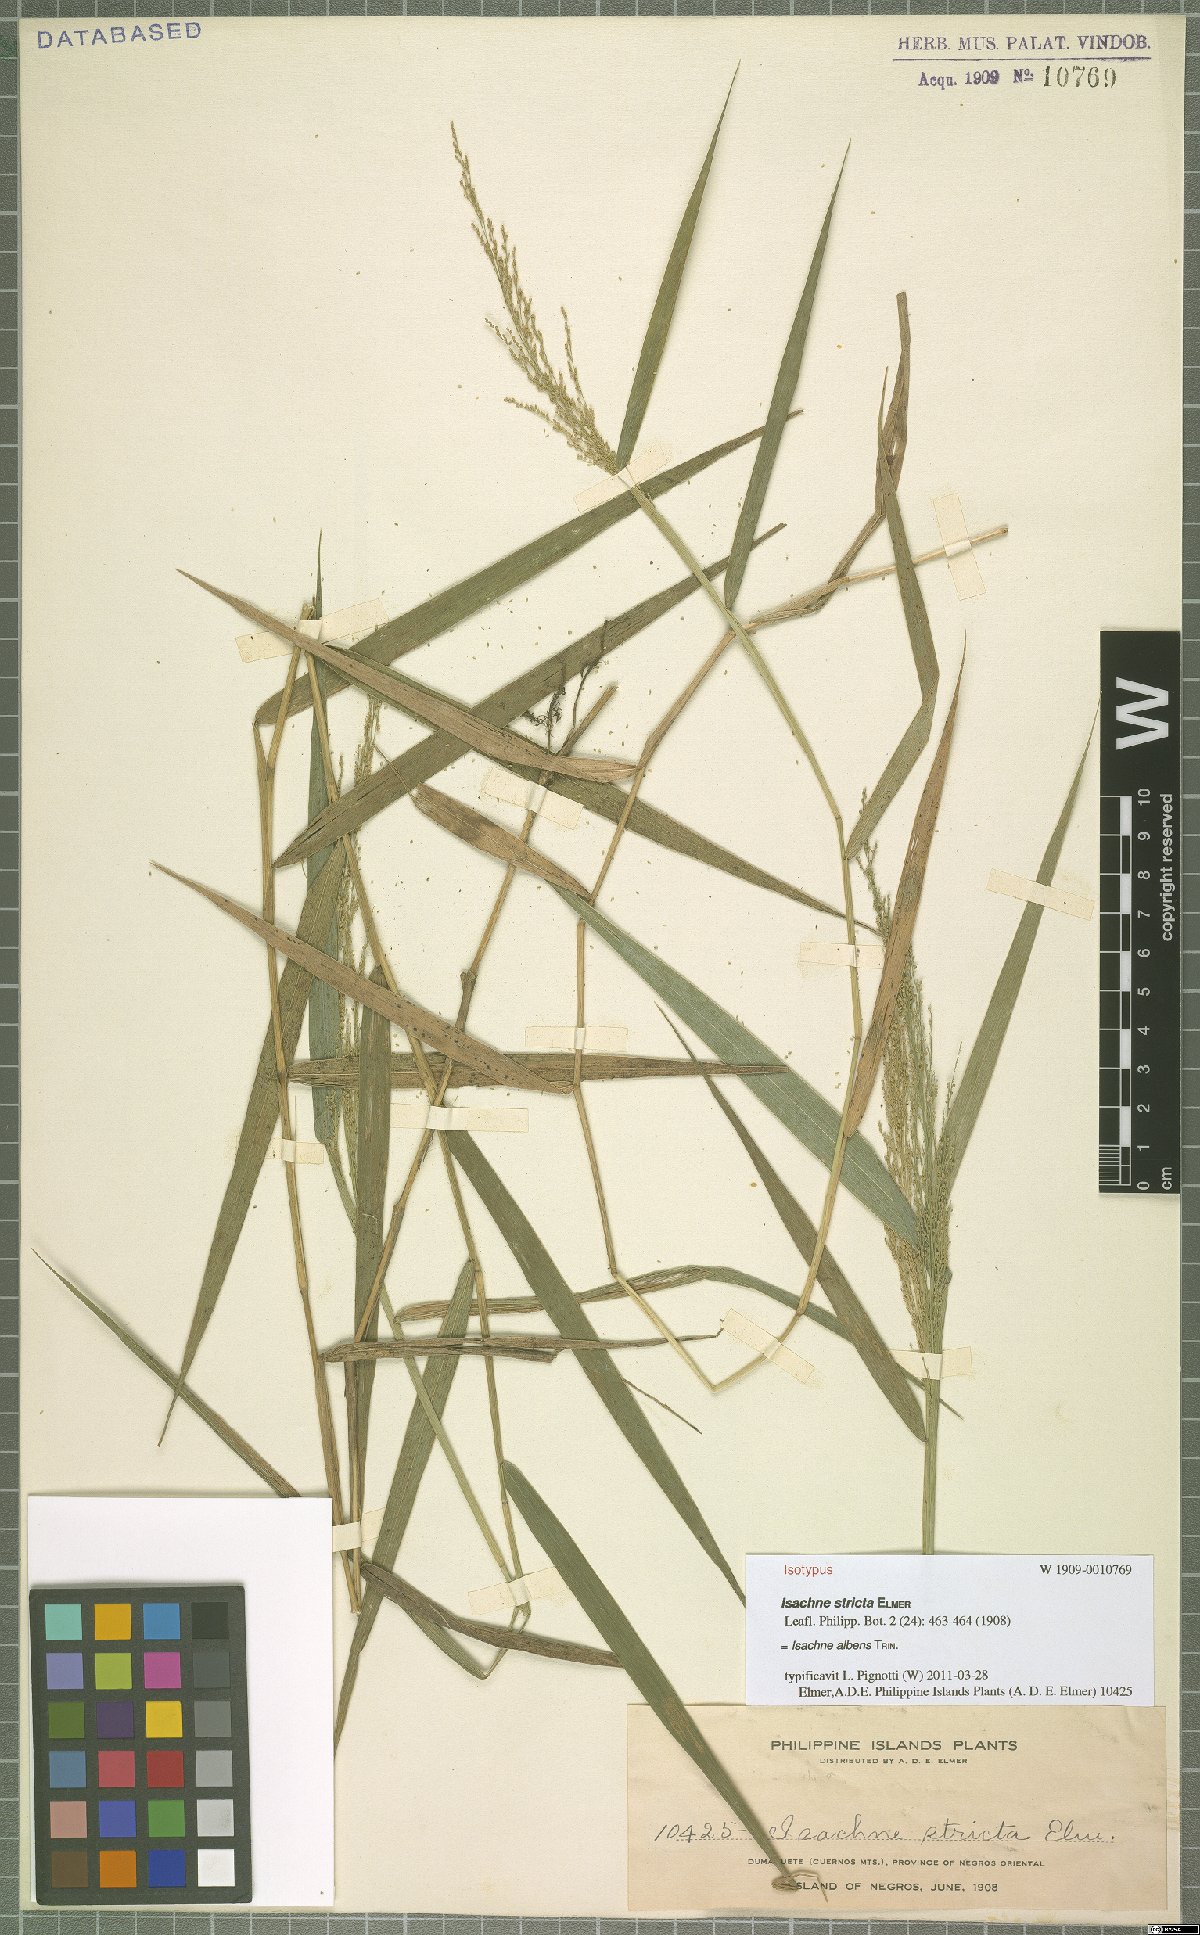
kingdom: Plantae
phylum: Tracheophyta
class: Liliopsida
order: Poales
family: Poaceae
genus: Isachne
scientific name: Isachne albens
